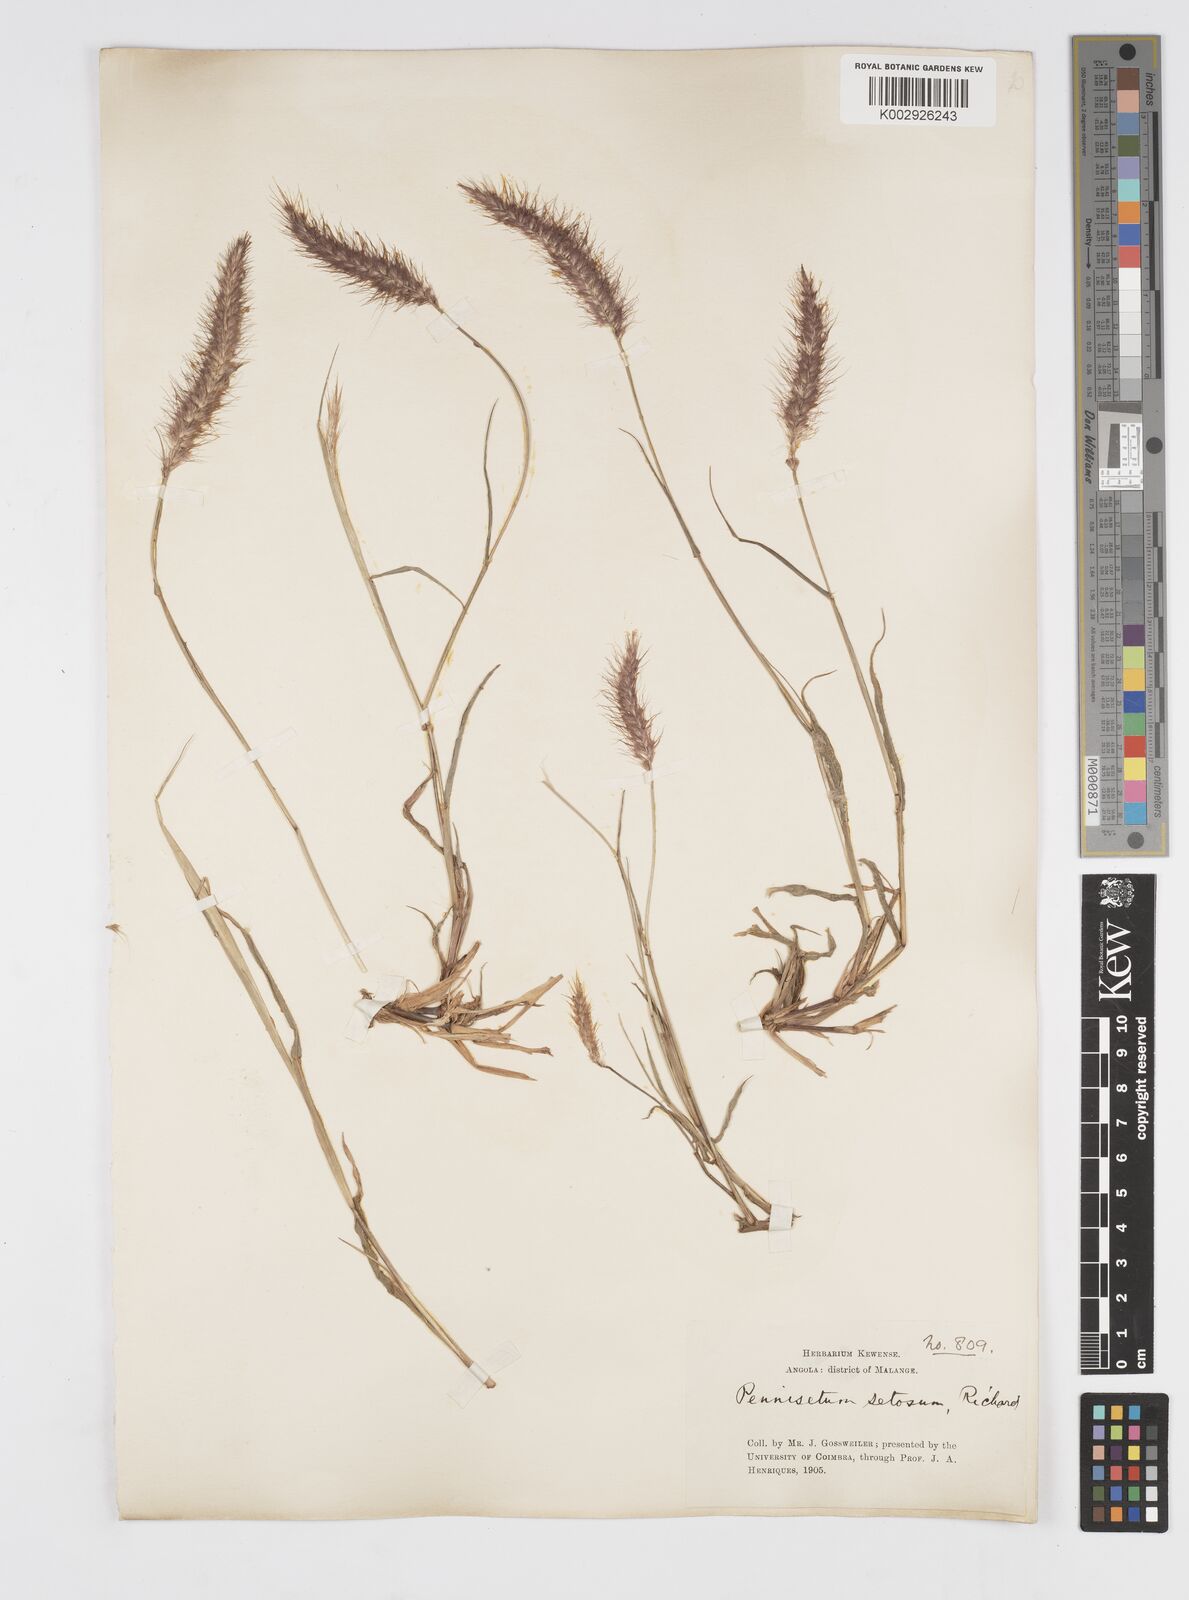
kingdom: Plantae
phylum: Tracheophyta
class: Liliopsida
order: Poales
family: Poaceae
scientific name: Poaceae
